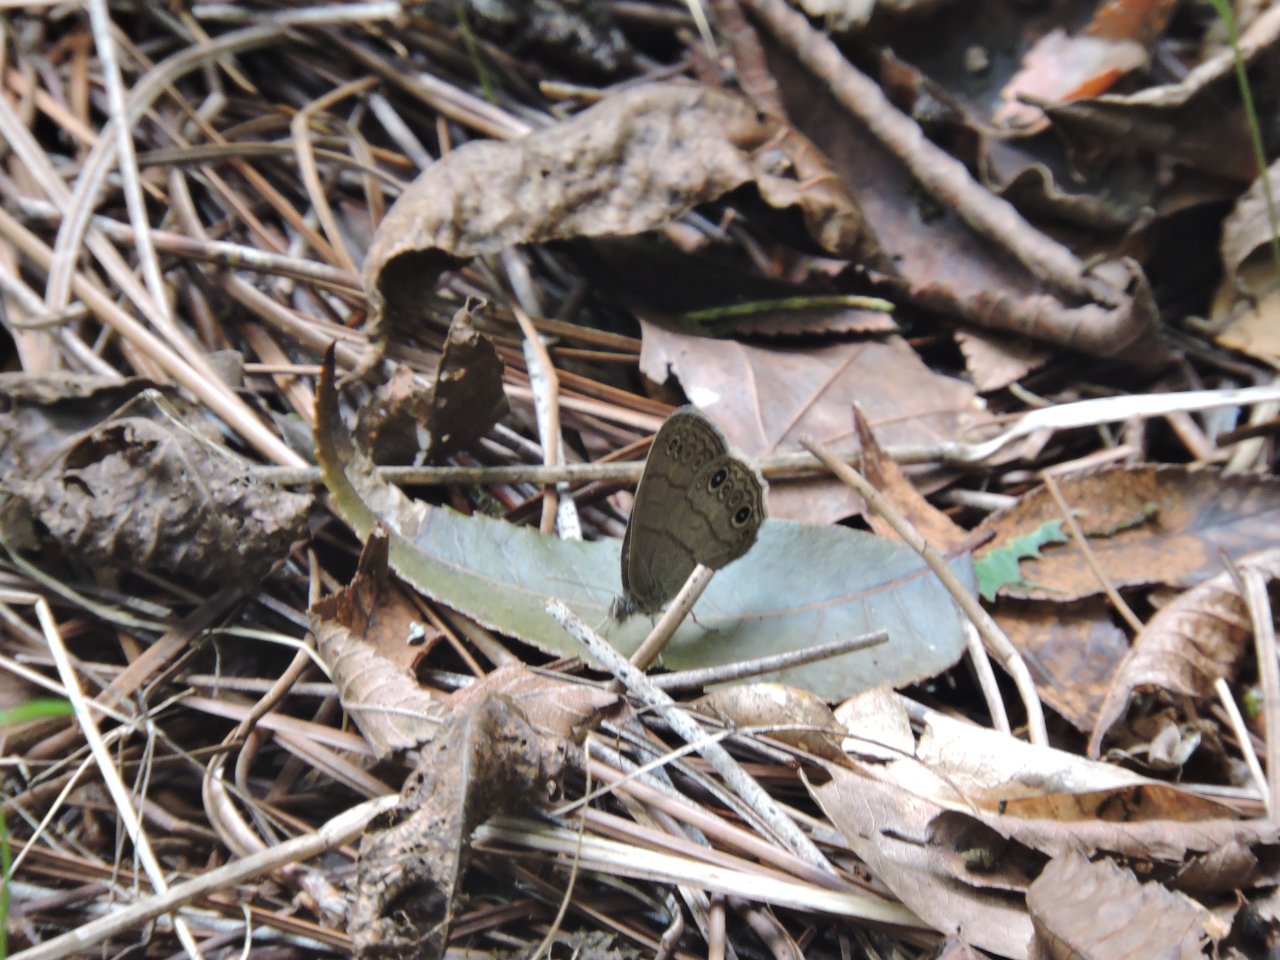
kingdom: Animalia
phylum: Arthropoda
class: Insecta
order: Lepidoptera
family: Nymphalidae
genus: Hermeuptychia
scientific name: Hermeuptychia hermes
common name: Carolina Satyr
